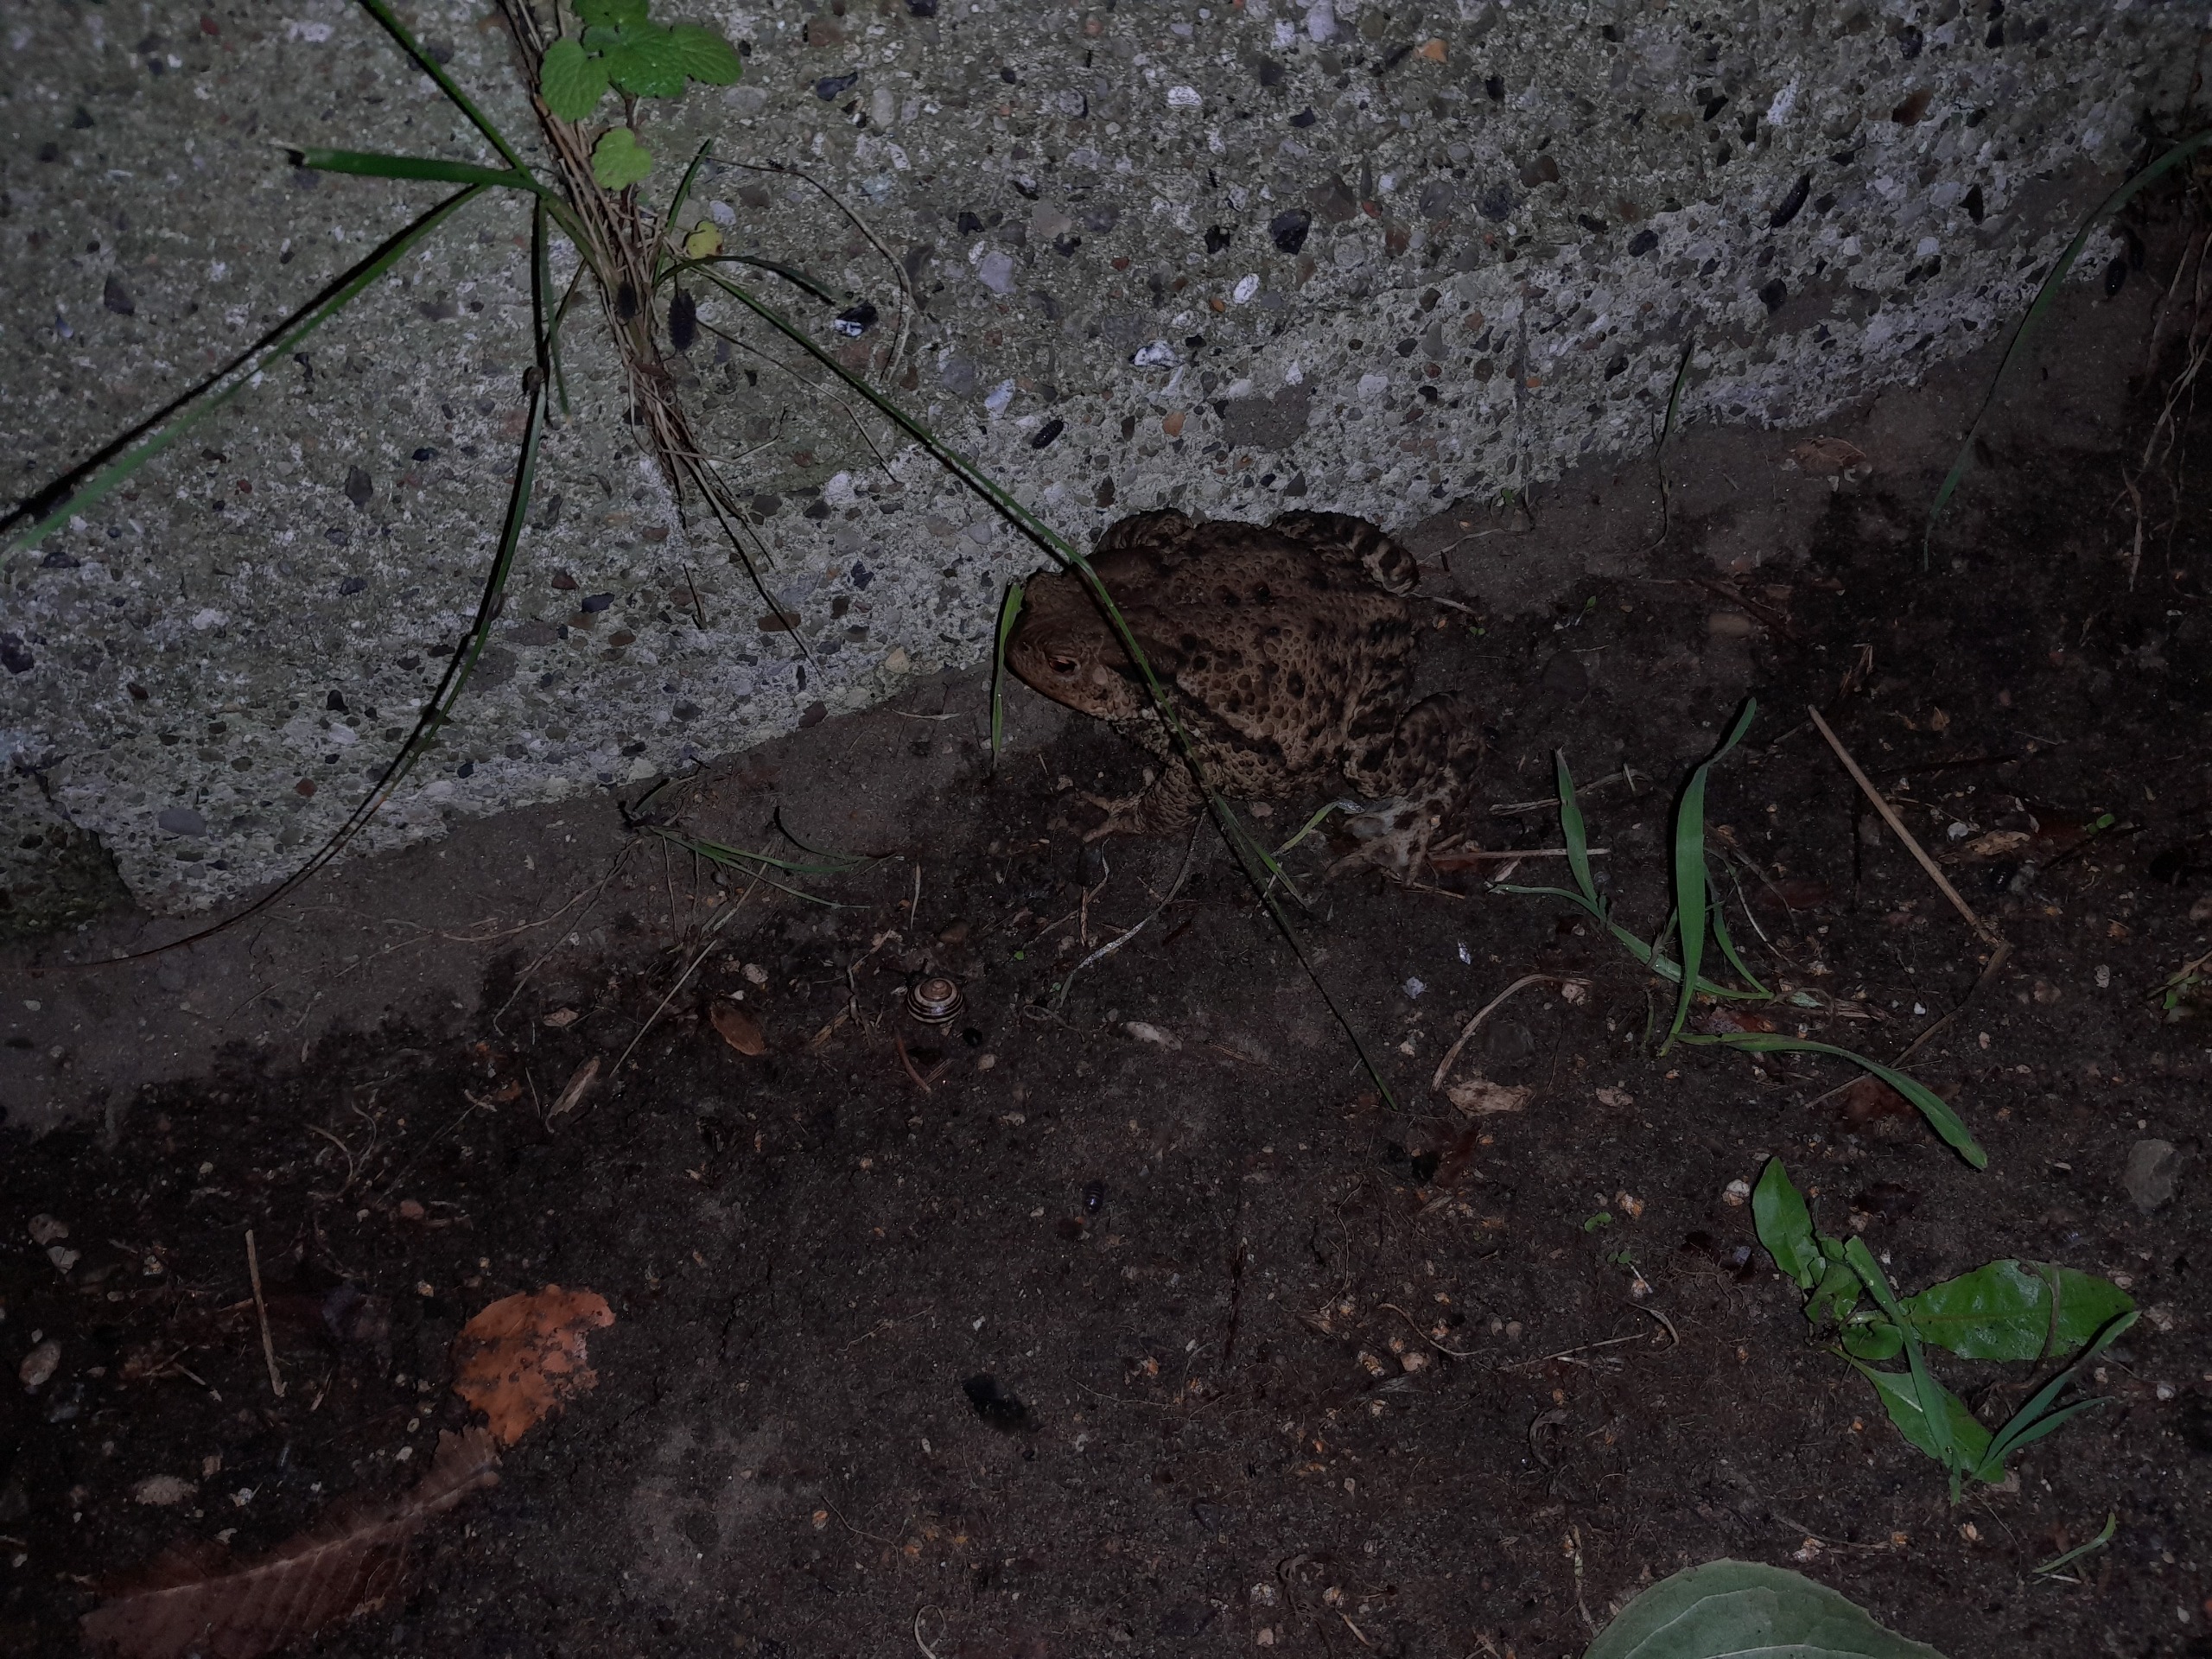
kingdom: Animalia
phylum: Chordata
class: Amphibia
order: Anura
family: Bufonidae
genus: Bufo
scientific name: Bufo bufo
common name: Skrubtudse
